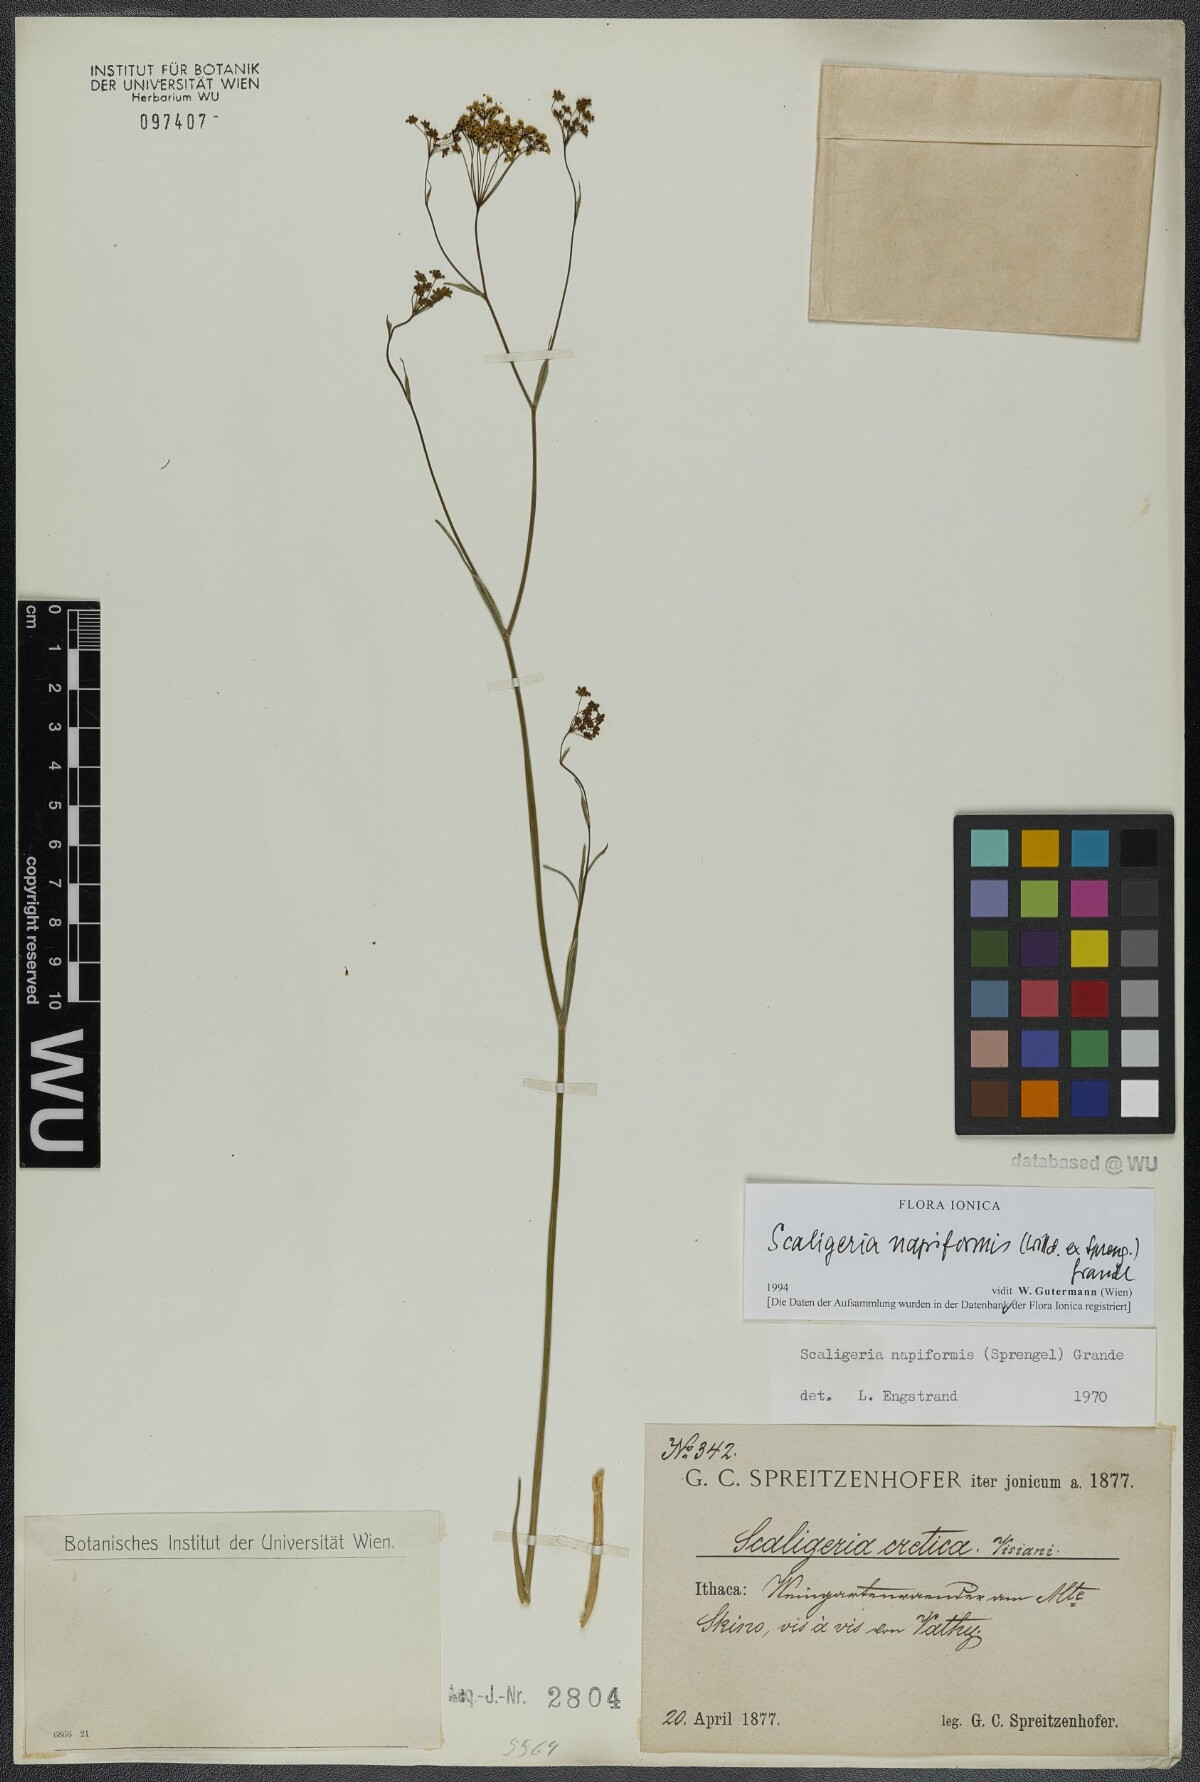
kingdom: Plantae
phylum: Tracheophyta
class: Magnoliopsida
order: Apiales
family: Apiaceae
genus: Scaligeria
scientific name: Scaligeria napiformis
